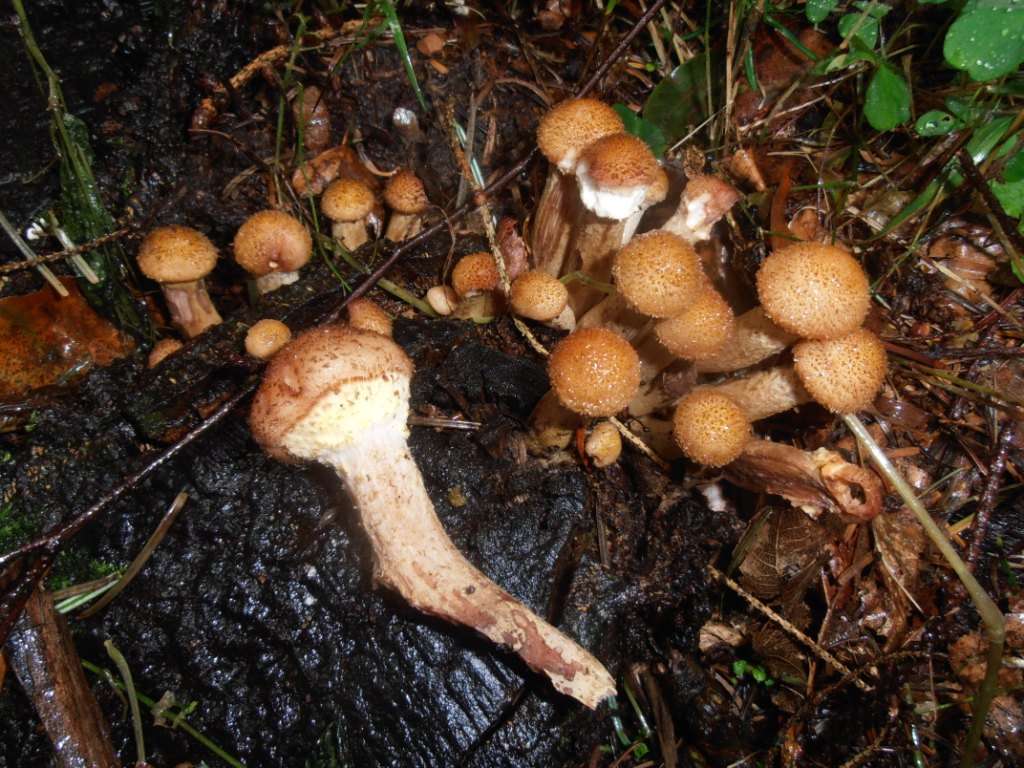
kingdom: Fungi
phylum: Basidiomycota
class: Agaricomycetes
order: Agaricales
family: Physalacriaceae
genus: Armillaria
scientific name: Armillaria ostoyae
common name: mørk honningsvamp
